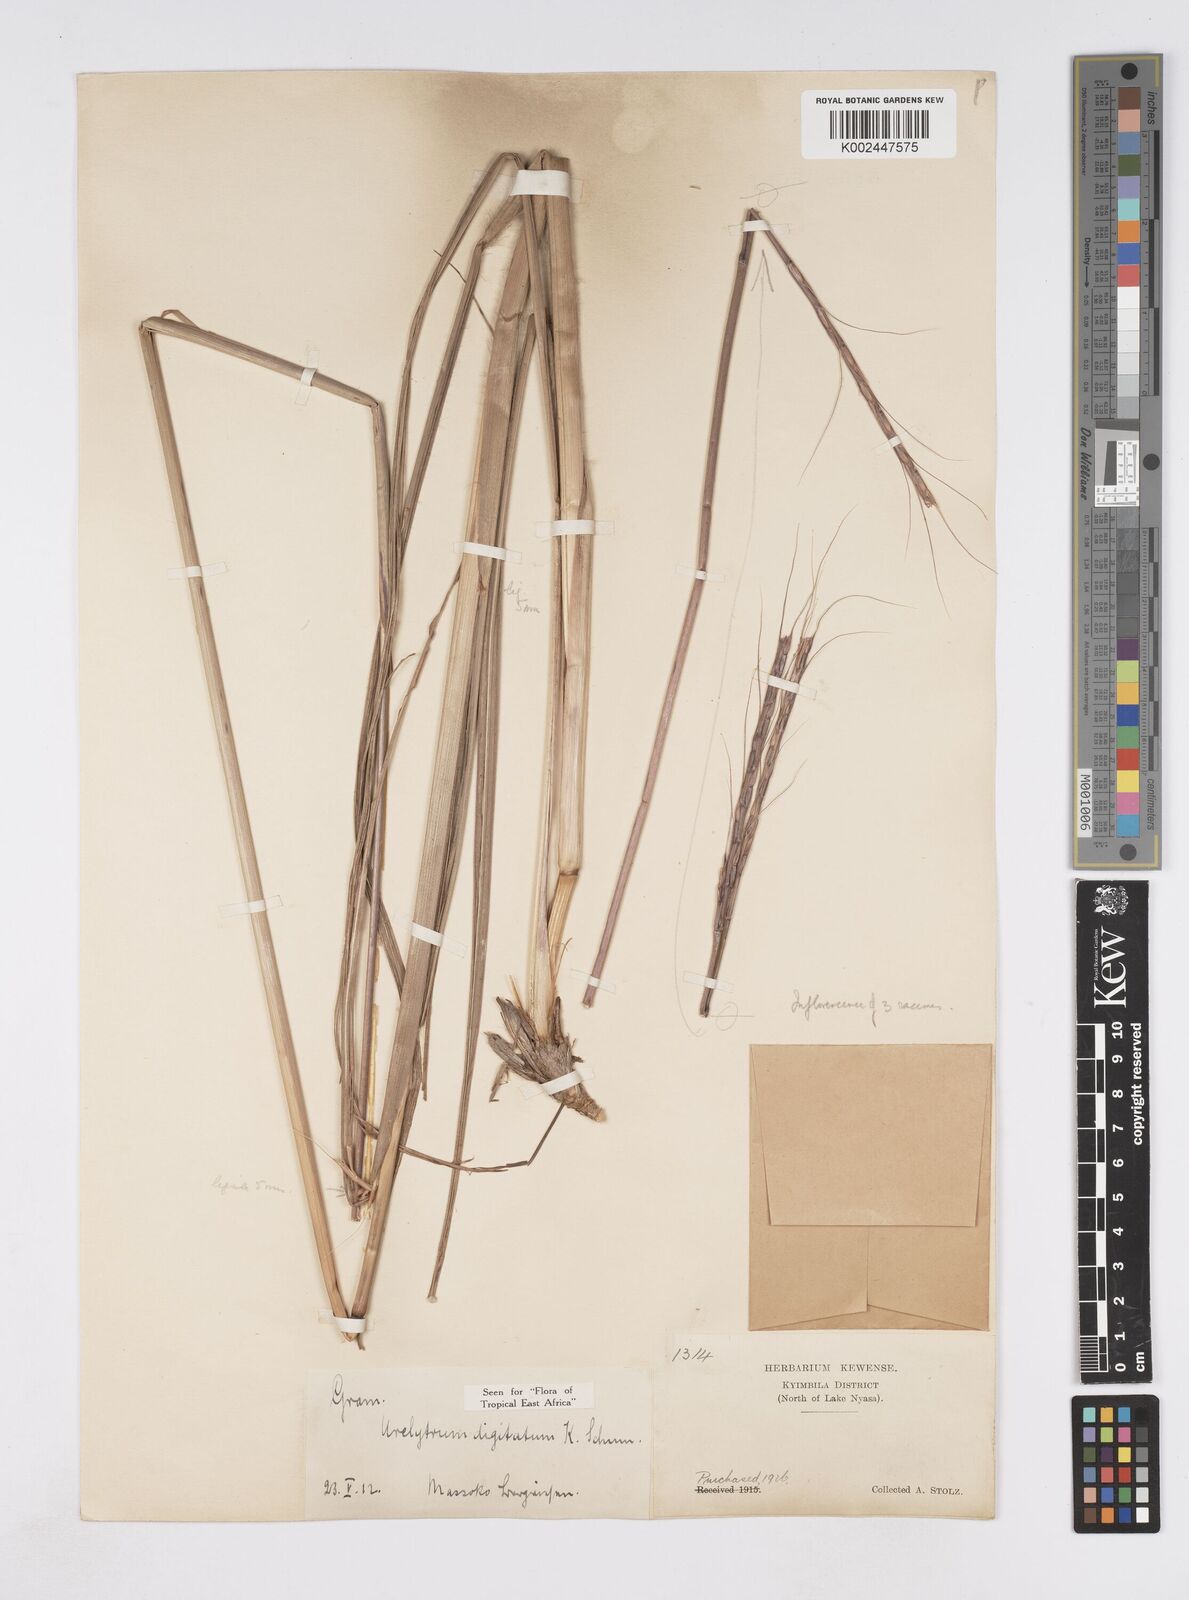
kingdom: Plantae
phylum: Tracheophyta
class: Liliopsida
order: Poales
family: Poaceae
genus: Urelytrum
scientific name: Urelytrum digitatum
